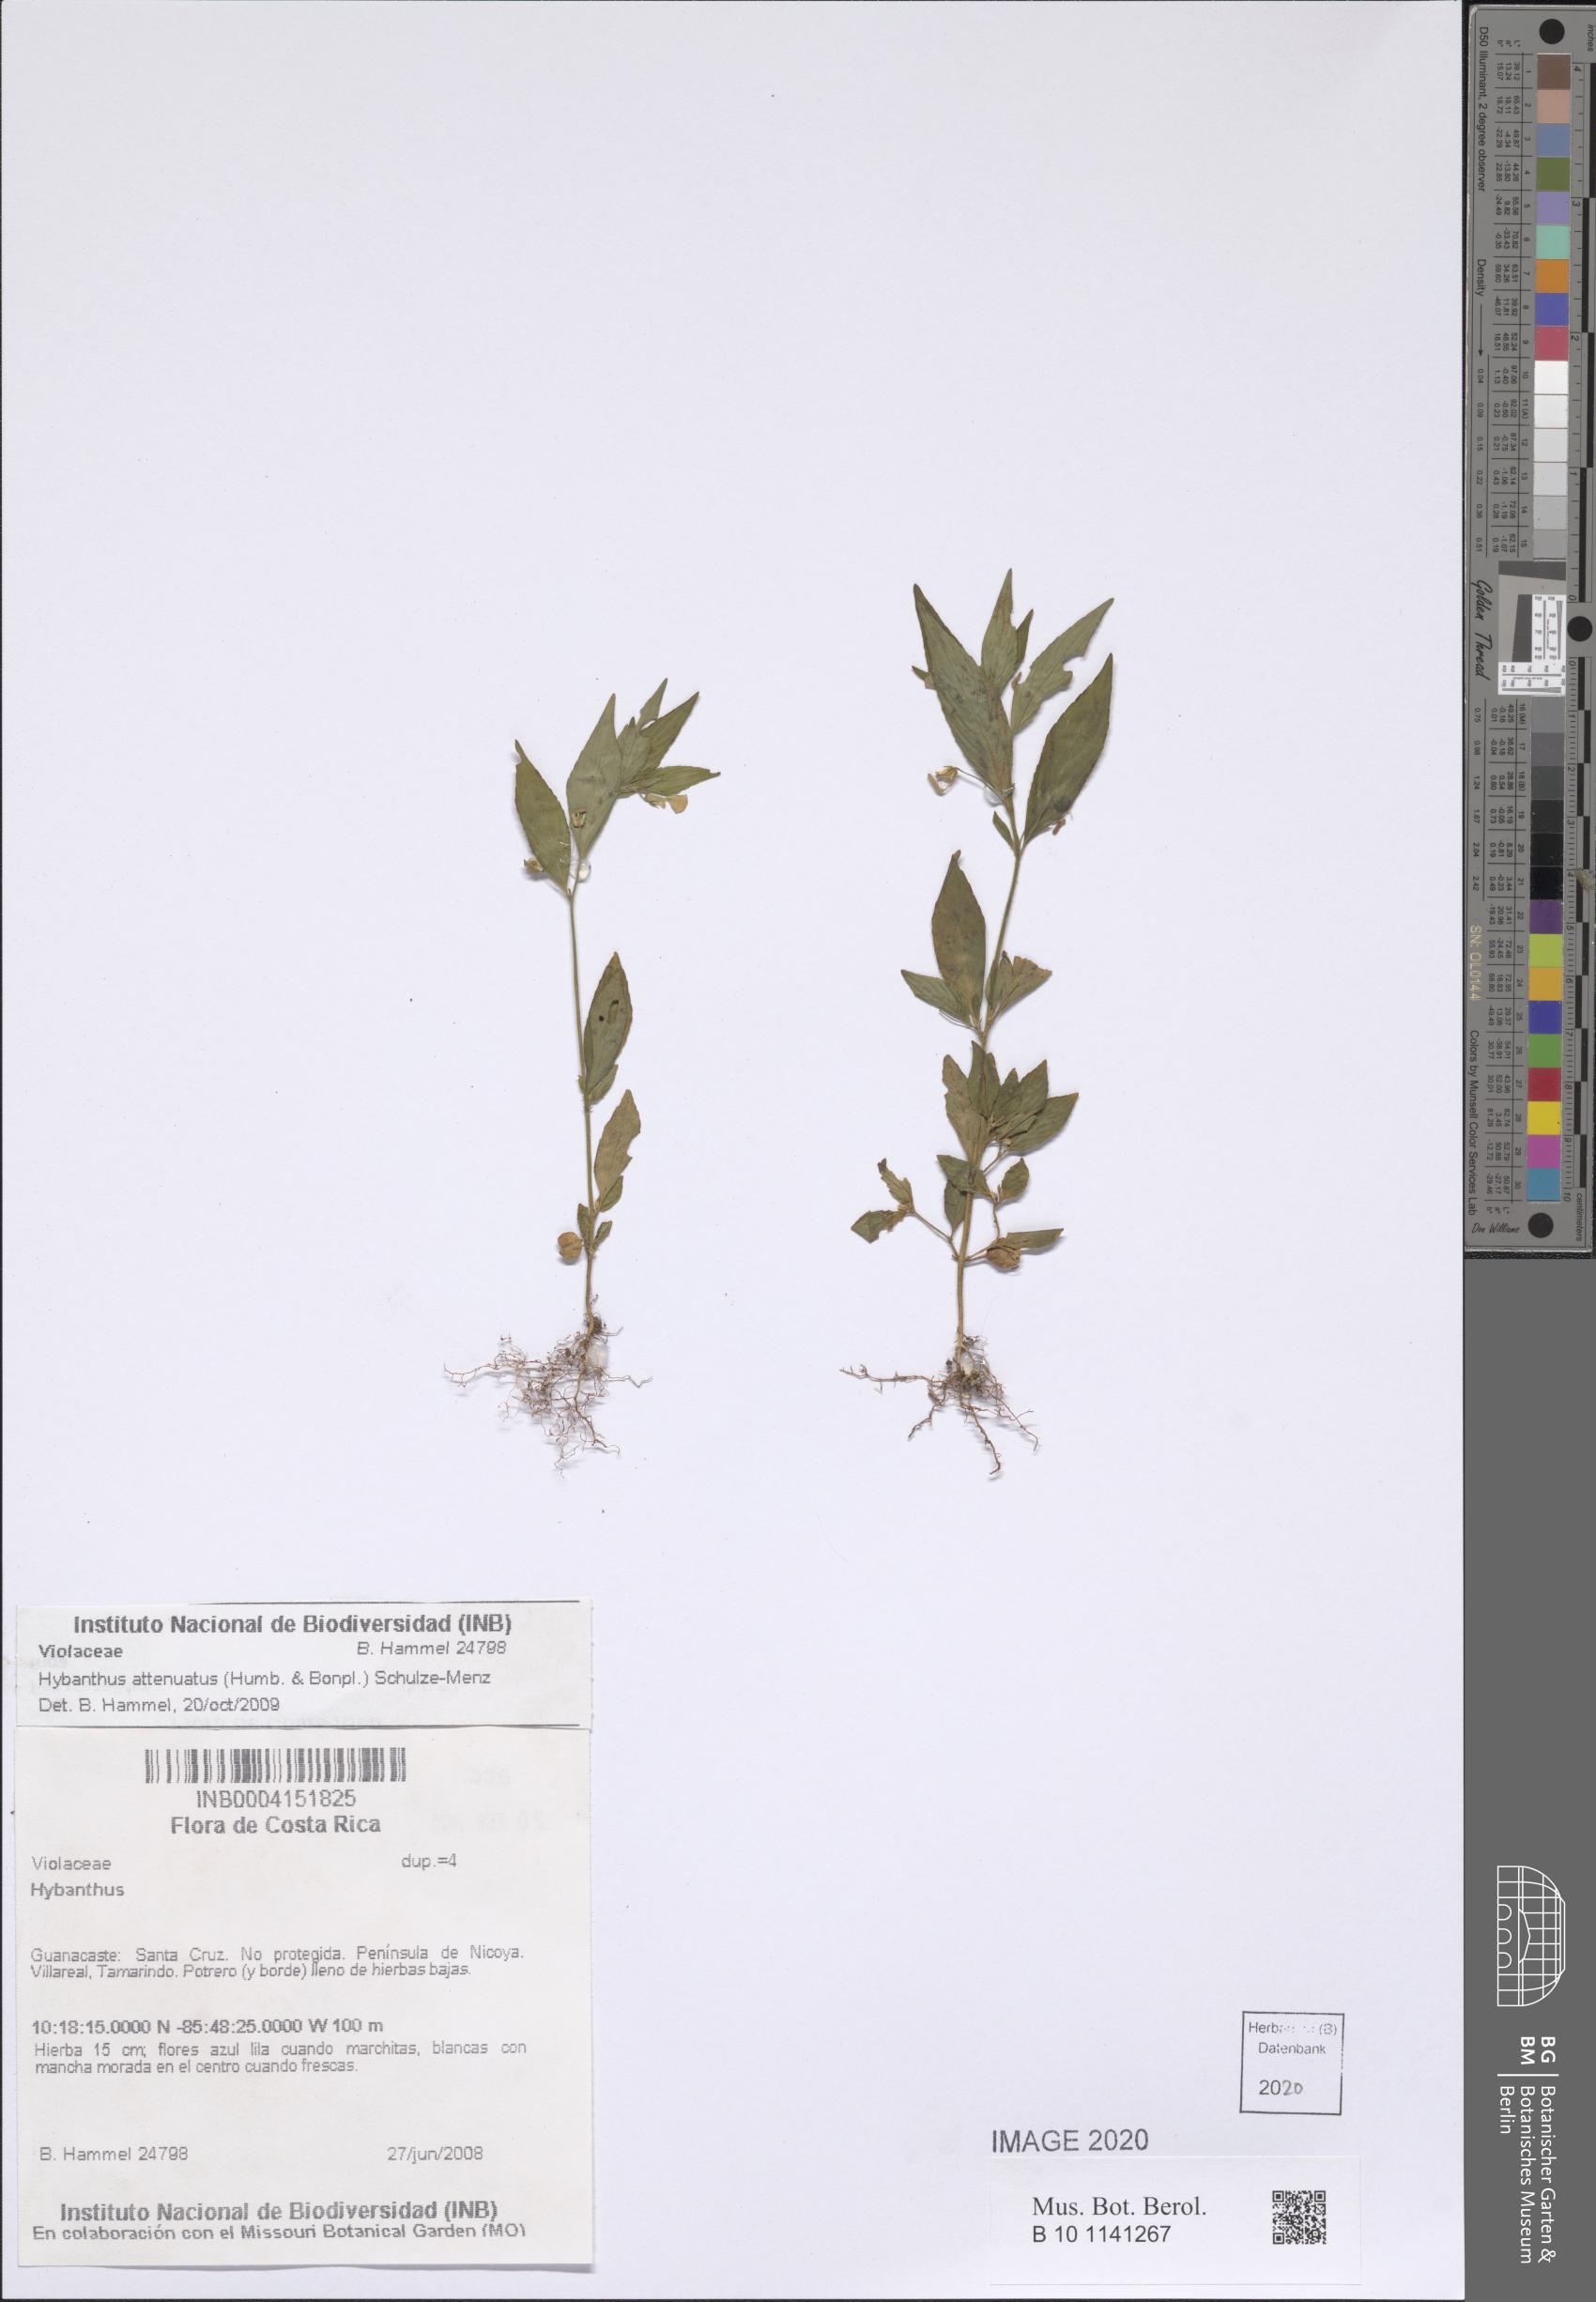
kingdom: Plantae
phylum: Tracheophyta
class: Magnoliopsida
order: Malpighiales
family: Violaceae
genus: Pombalia
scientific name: Pombalia attenuata
